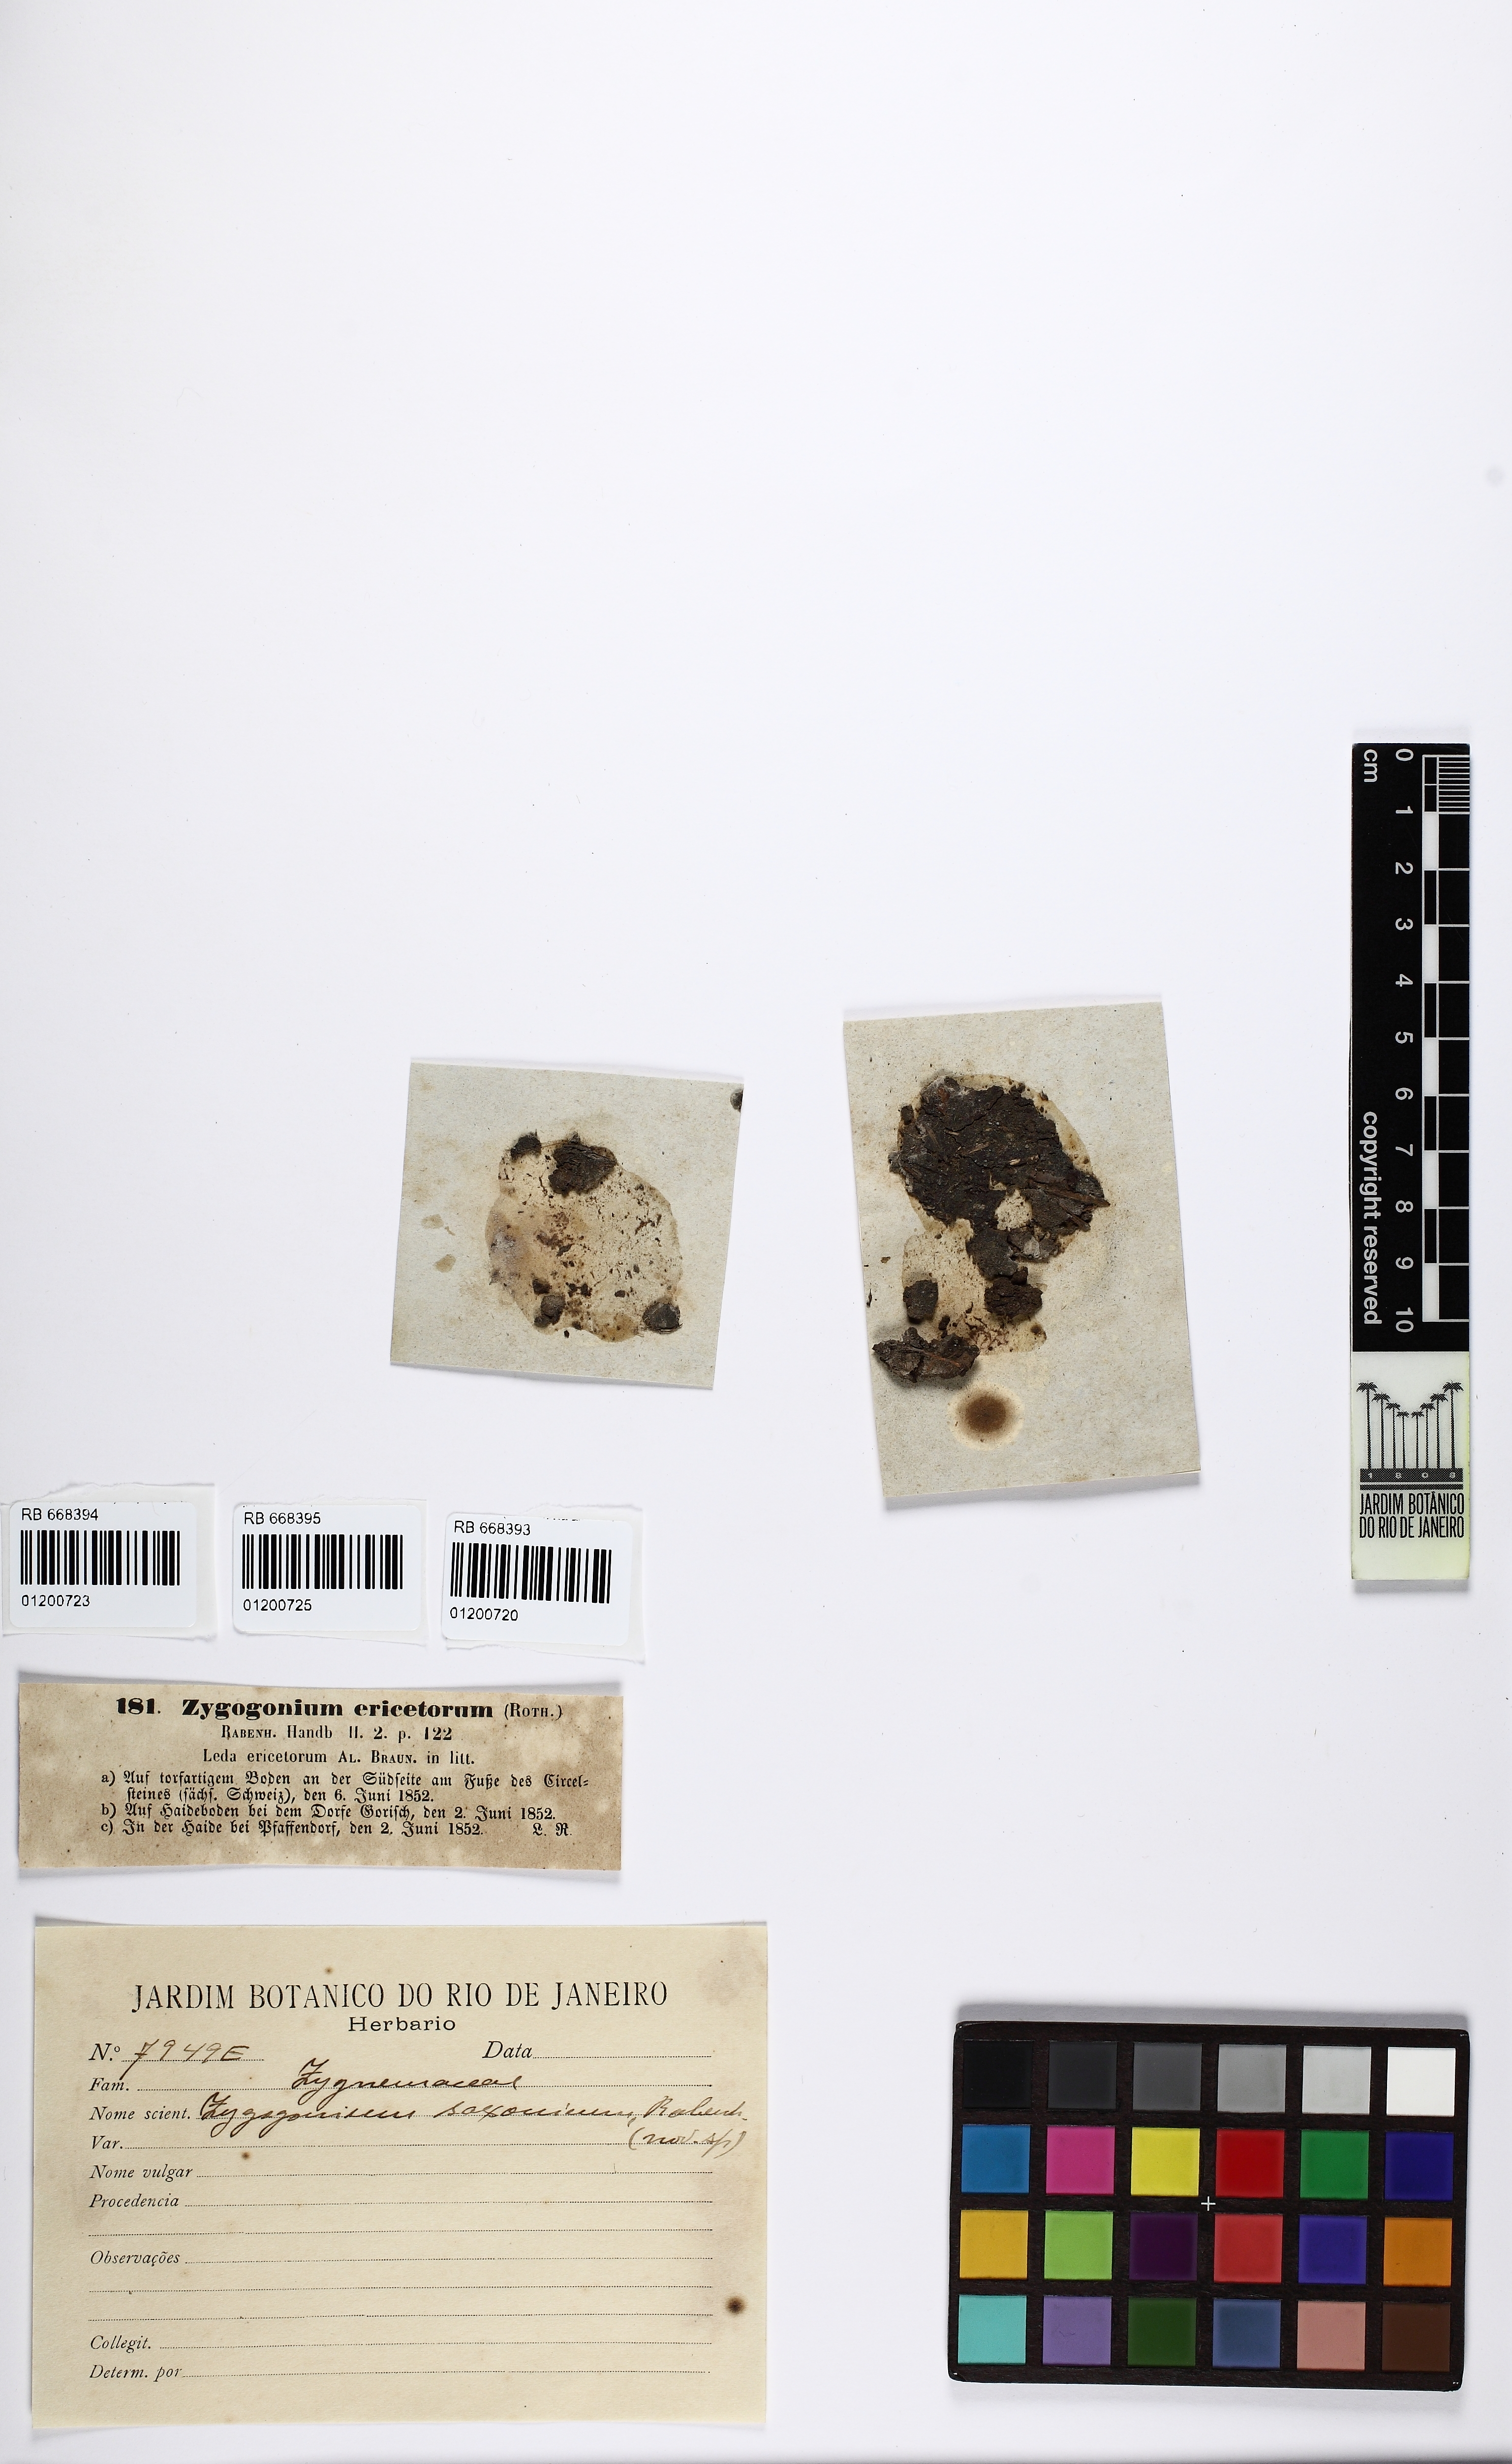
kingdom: Plantae
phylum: Charophyta
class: Zygnematophyceae
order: Zygnematales
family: Zygnemataceae
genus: Zygogonium
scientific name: Zygogonium ericetorum
